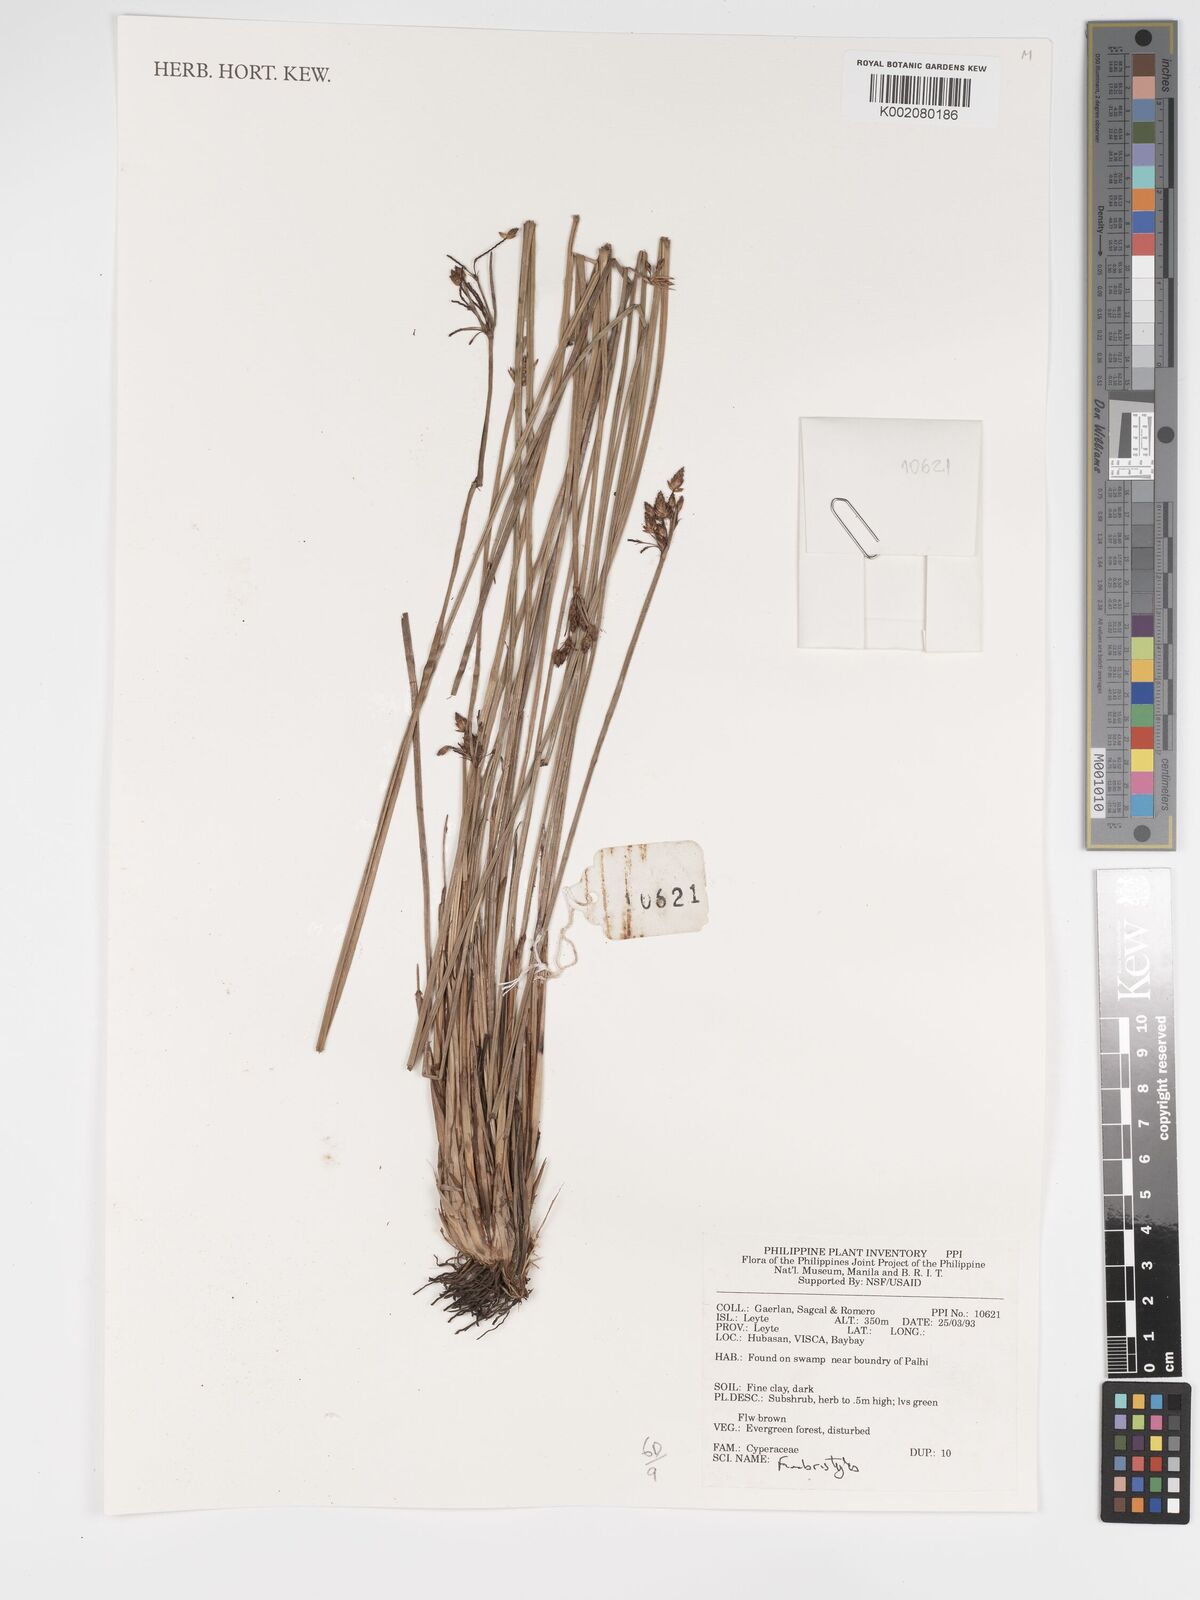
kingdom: Plantae
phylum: Tracheophyta
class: Liliopsida
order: Poales
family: Cyperaceae
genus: Fimbristylis
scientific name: Fimbristylis
